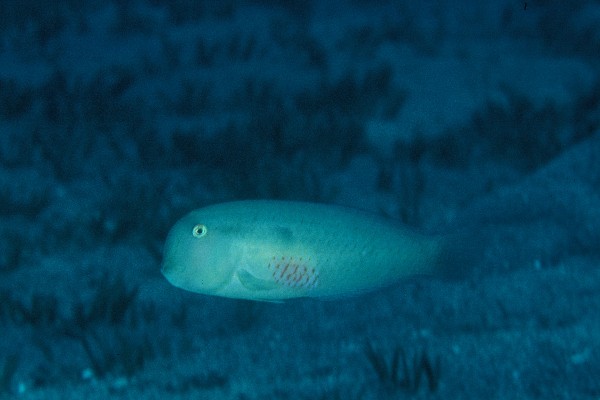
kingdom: Animalia
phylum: Chordata
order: Perciformes
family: Labridae
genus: Iniistius
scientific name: Iniistius pentadactylus
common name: Fivefinger razorfish
